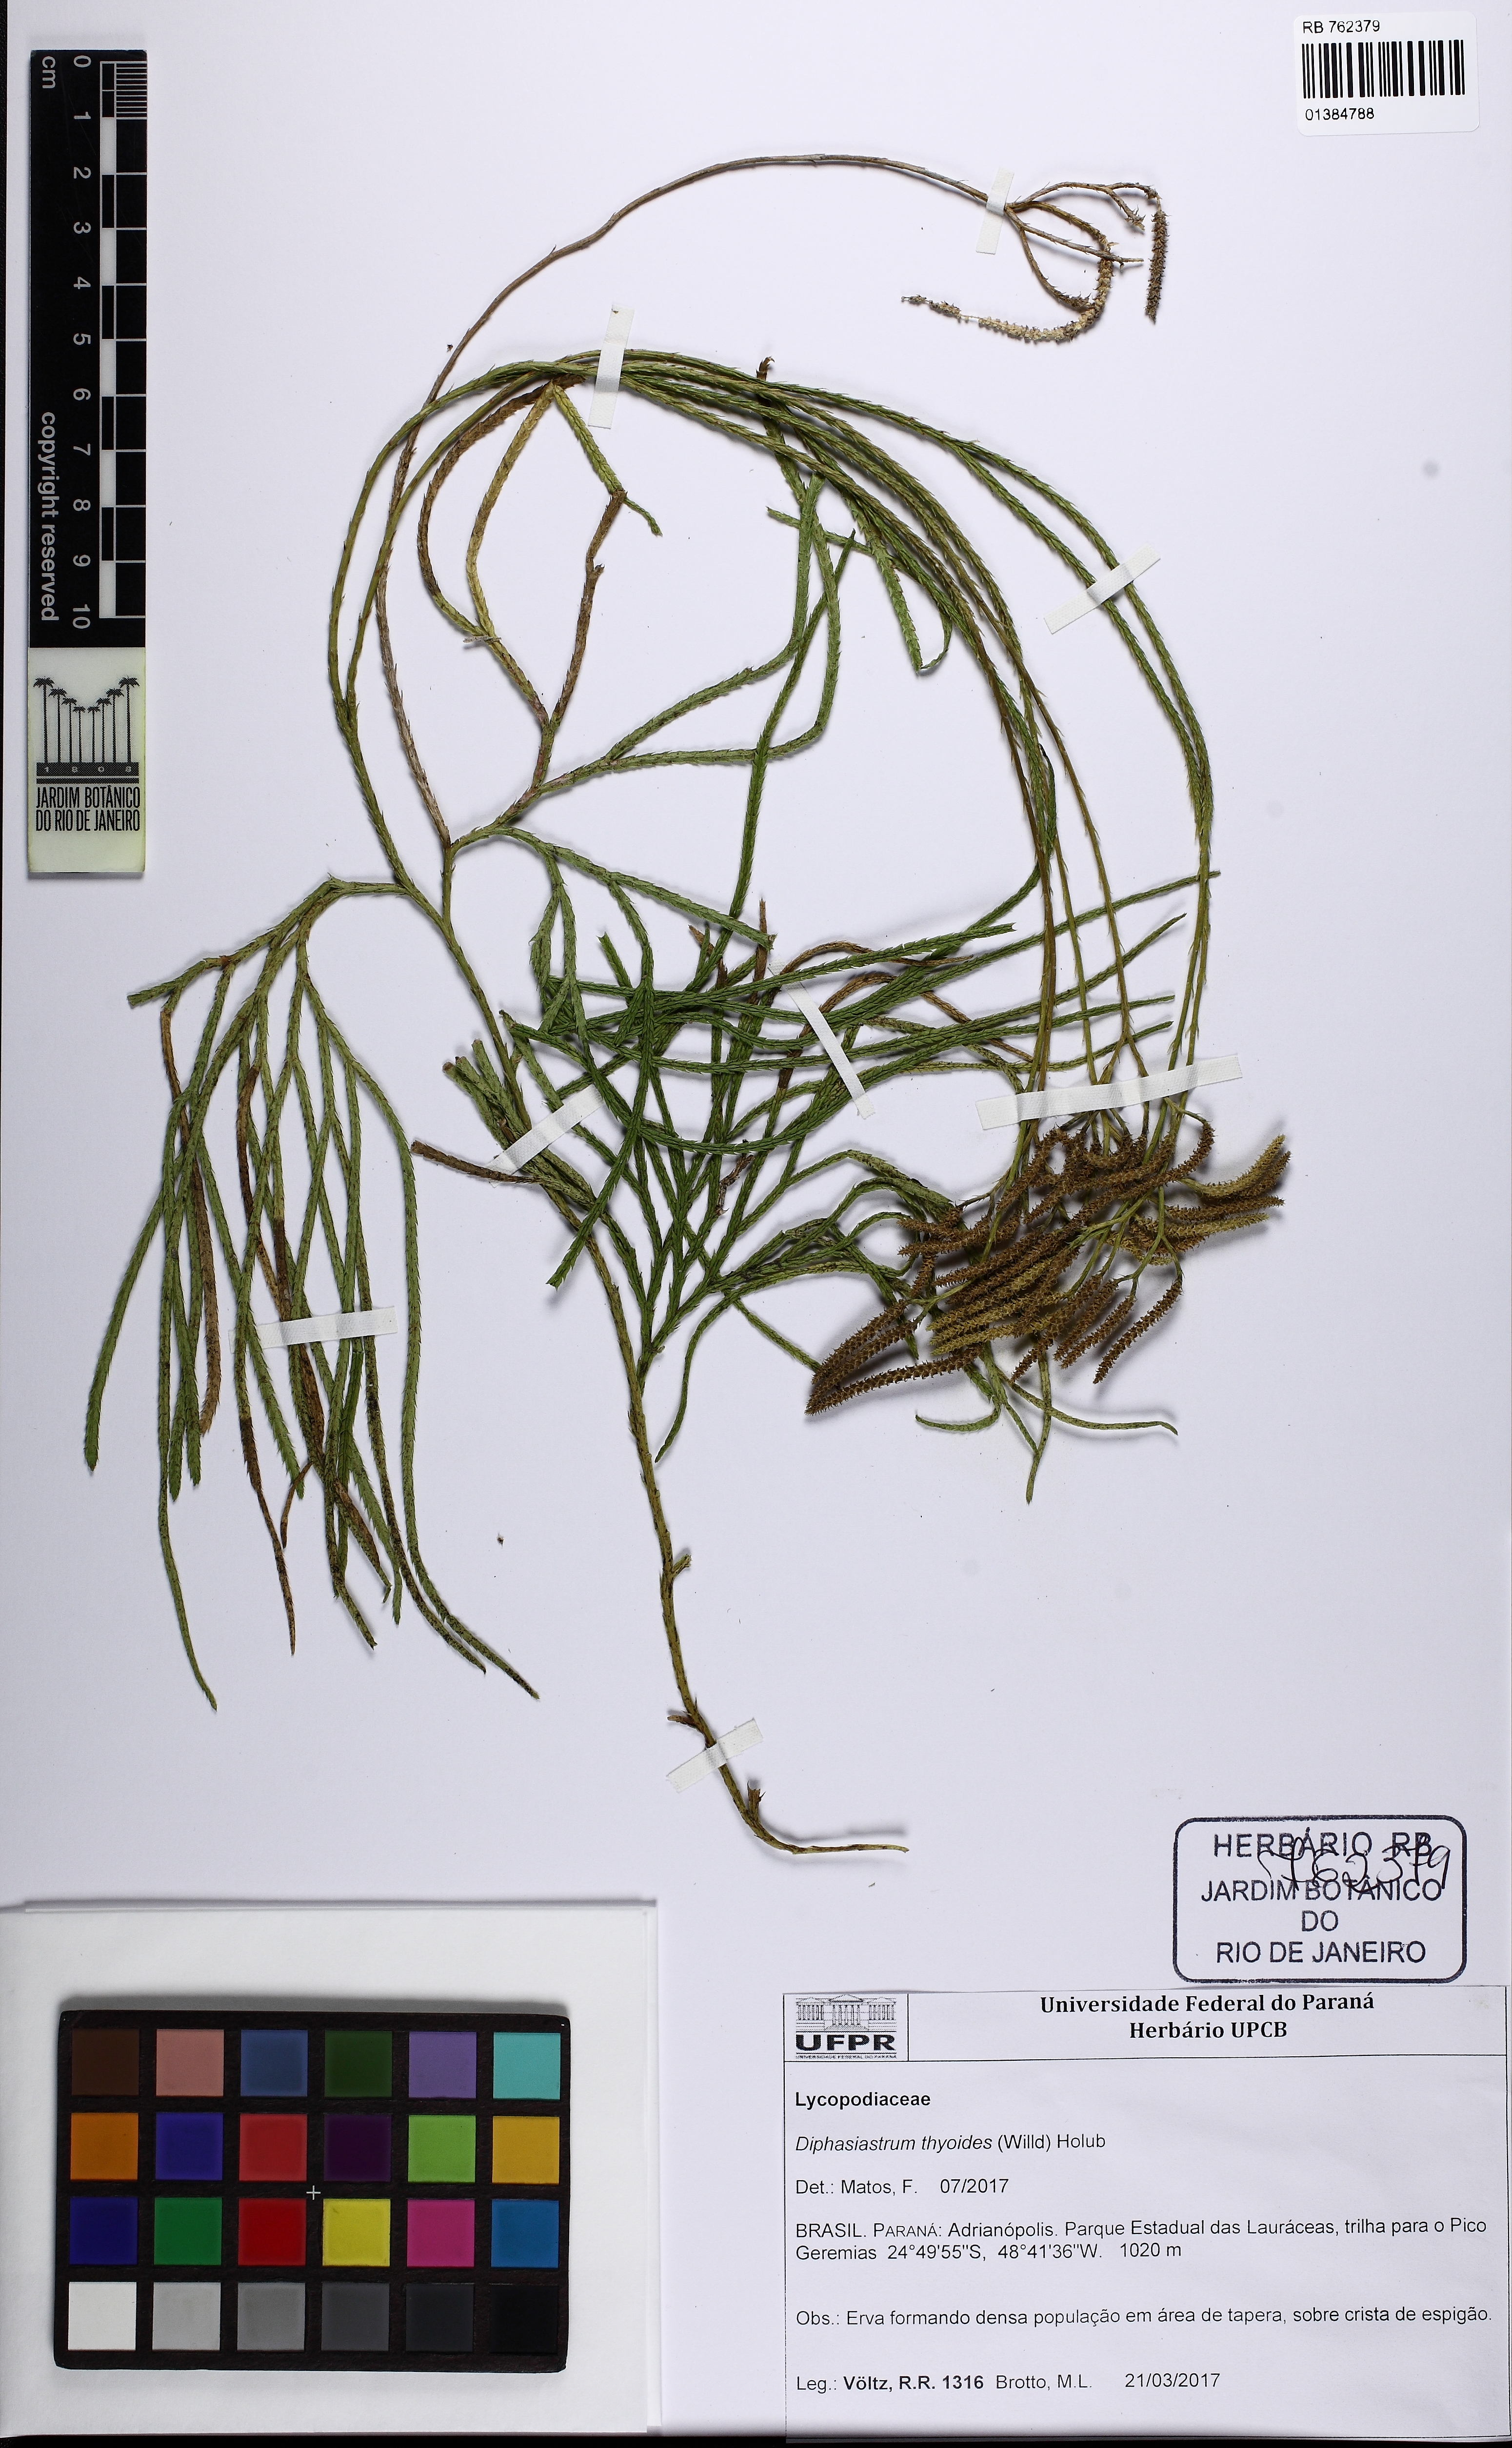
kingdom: Plantae
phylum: Tracheophyta
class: Lycopodiopsida
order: Lycopodiales
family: Lycopodiaceae
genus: Diphasiastrum
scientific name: Diphasiastrum thyoides
